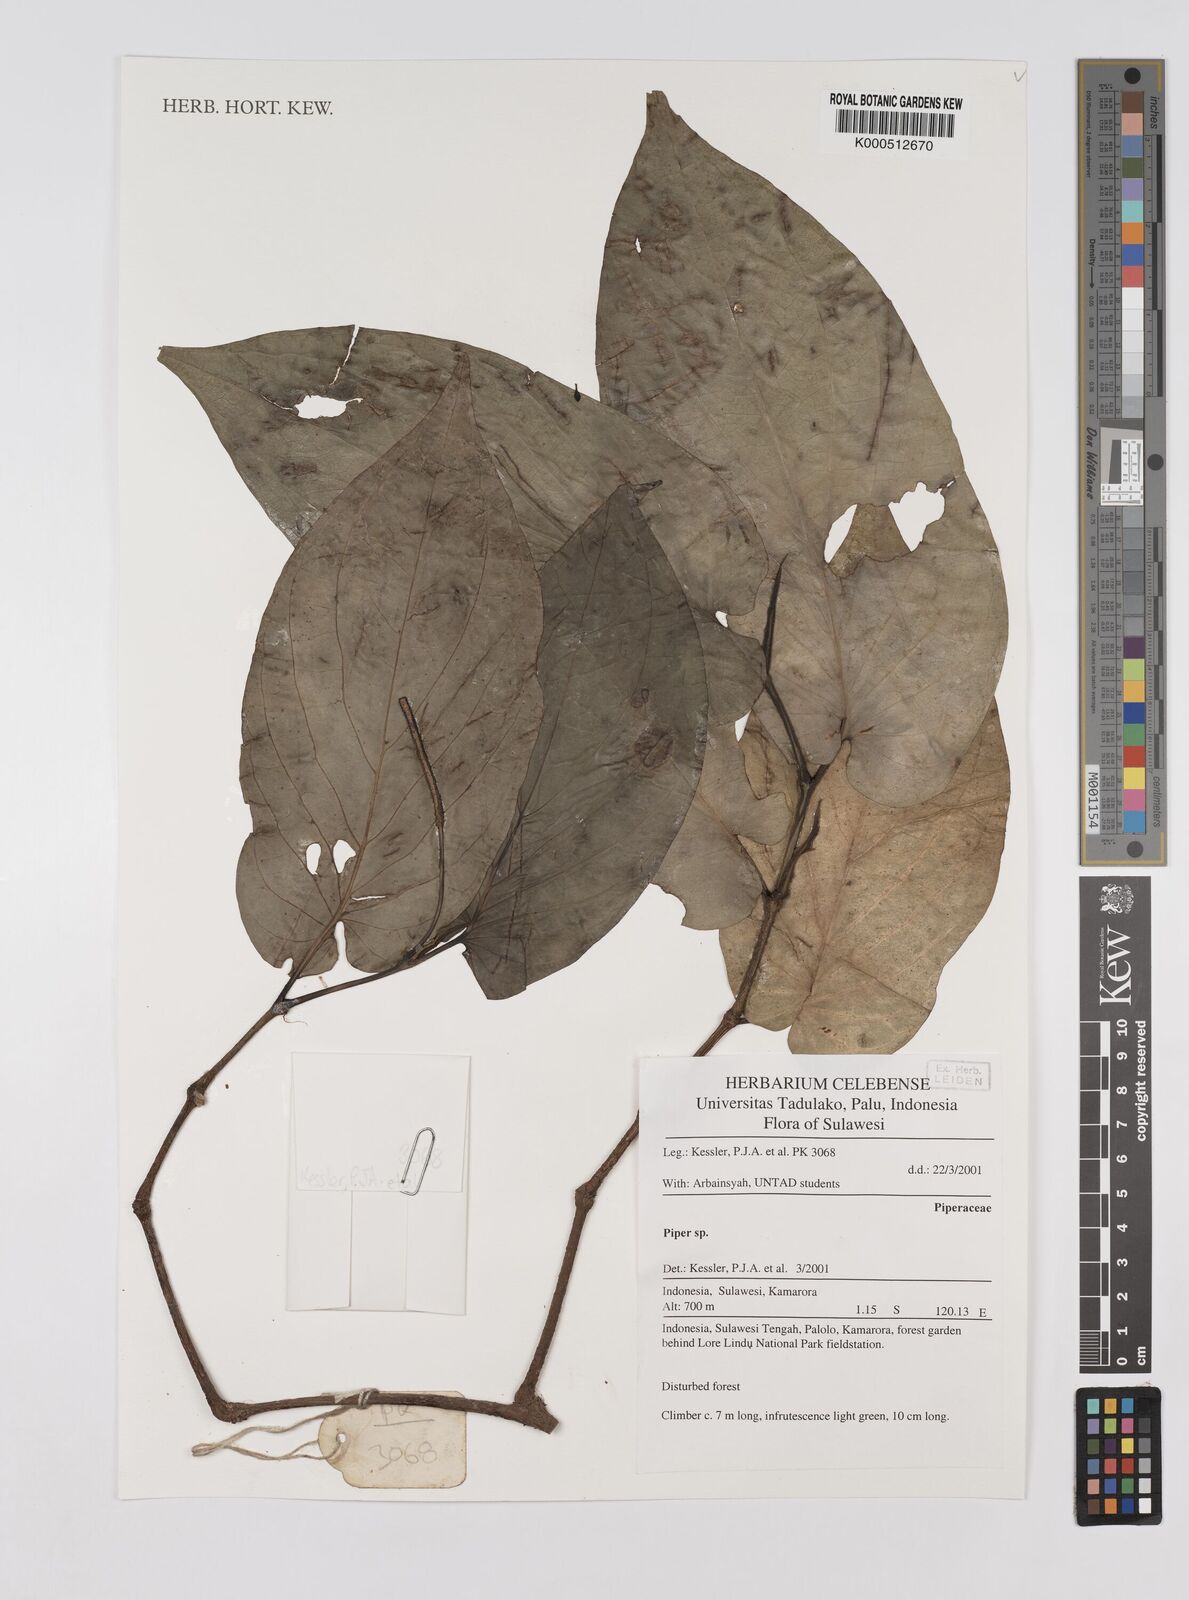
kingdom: Plantae
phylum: Tracheophyta
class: Magnoliopsida
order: Piperales
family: Piperaceae
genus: Piper
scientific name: Piper
